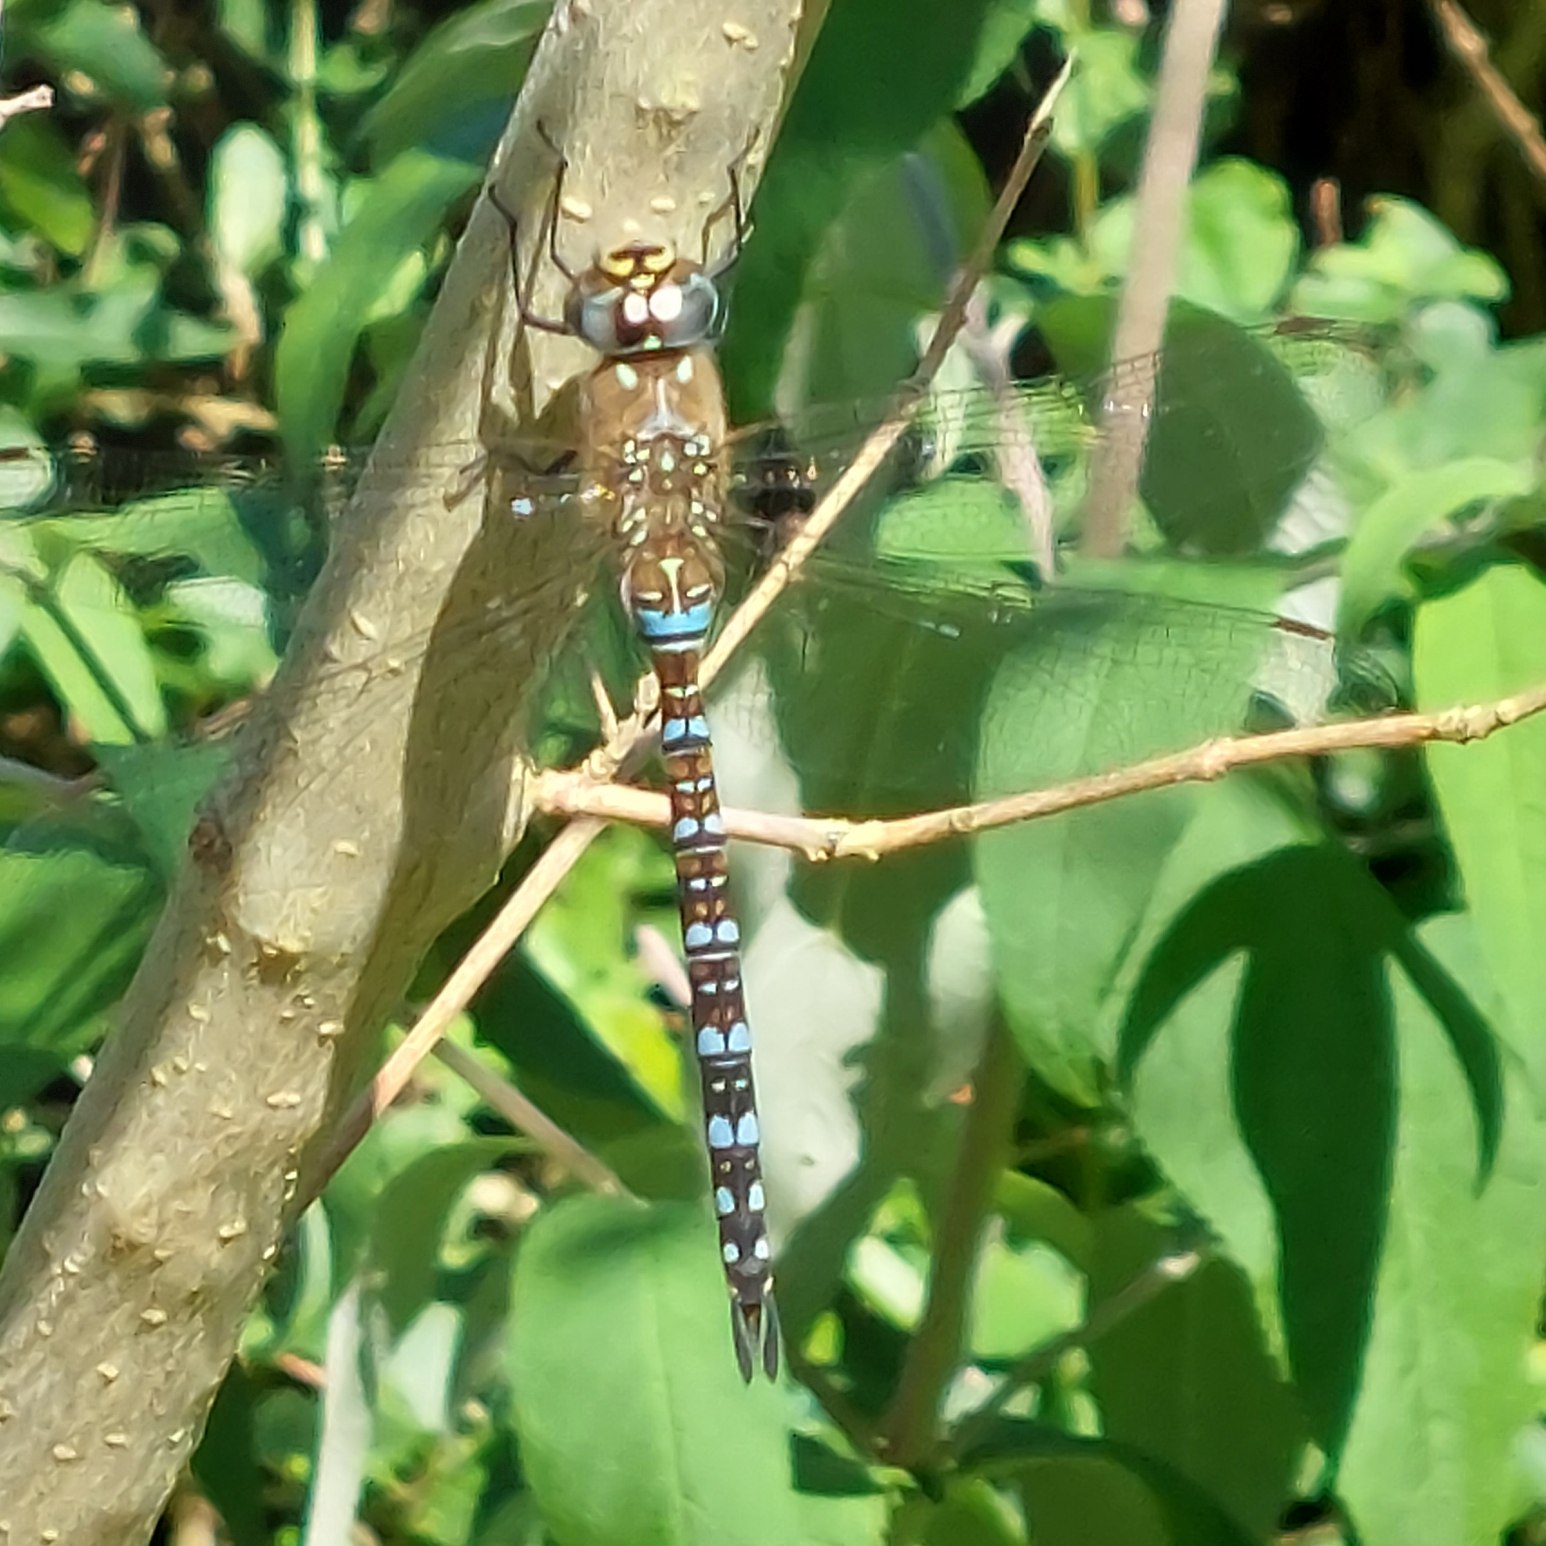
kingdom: Animalia
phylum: Arthropoda
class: Insecta
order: Odonata
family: Aeshnidae
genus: Aeshna
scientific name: Aeshna mixta
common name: Efterårs-mosaikguldsmed
